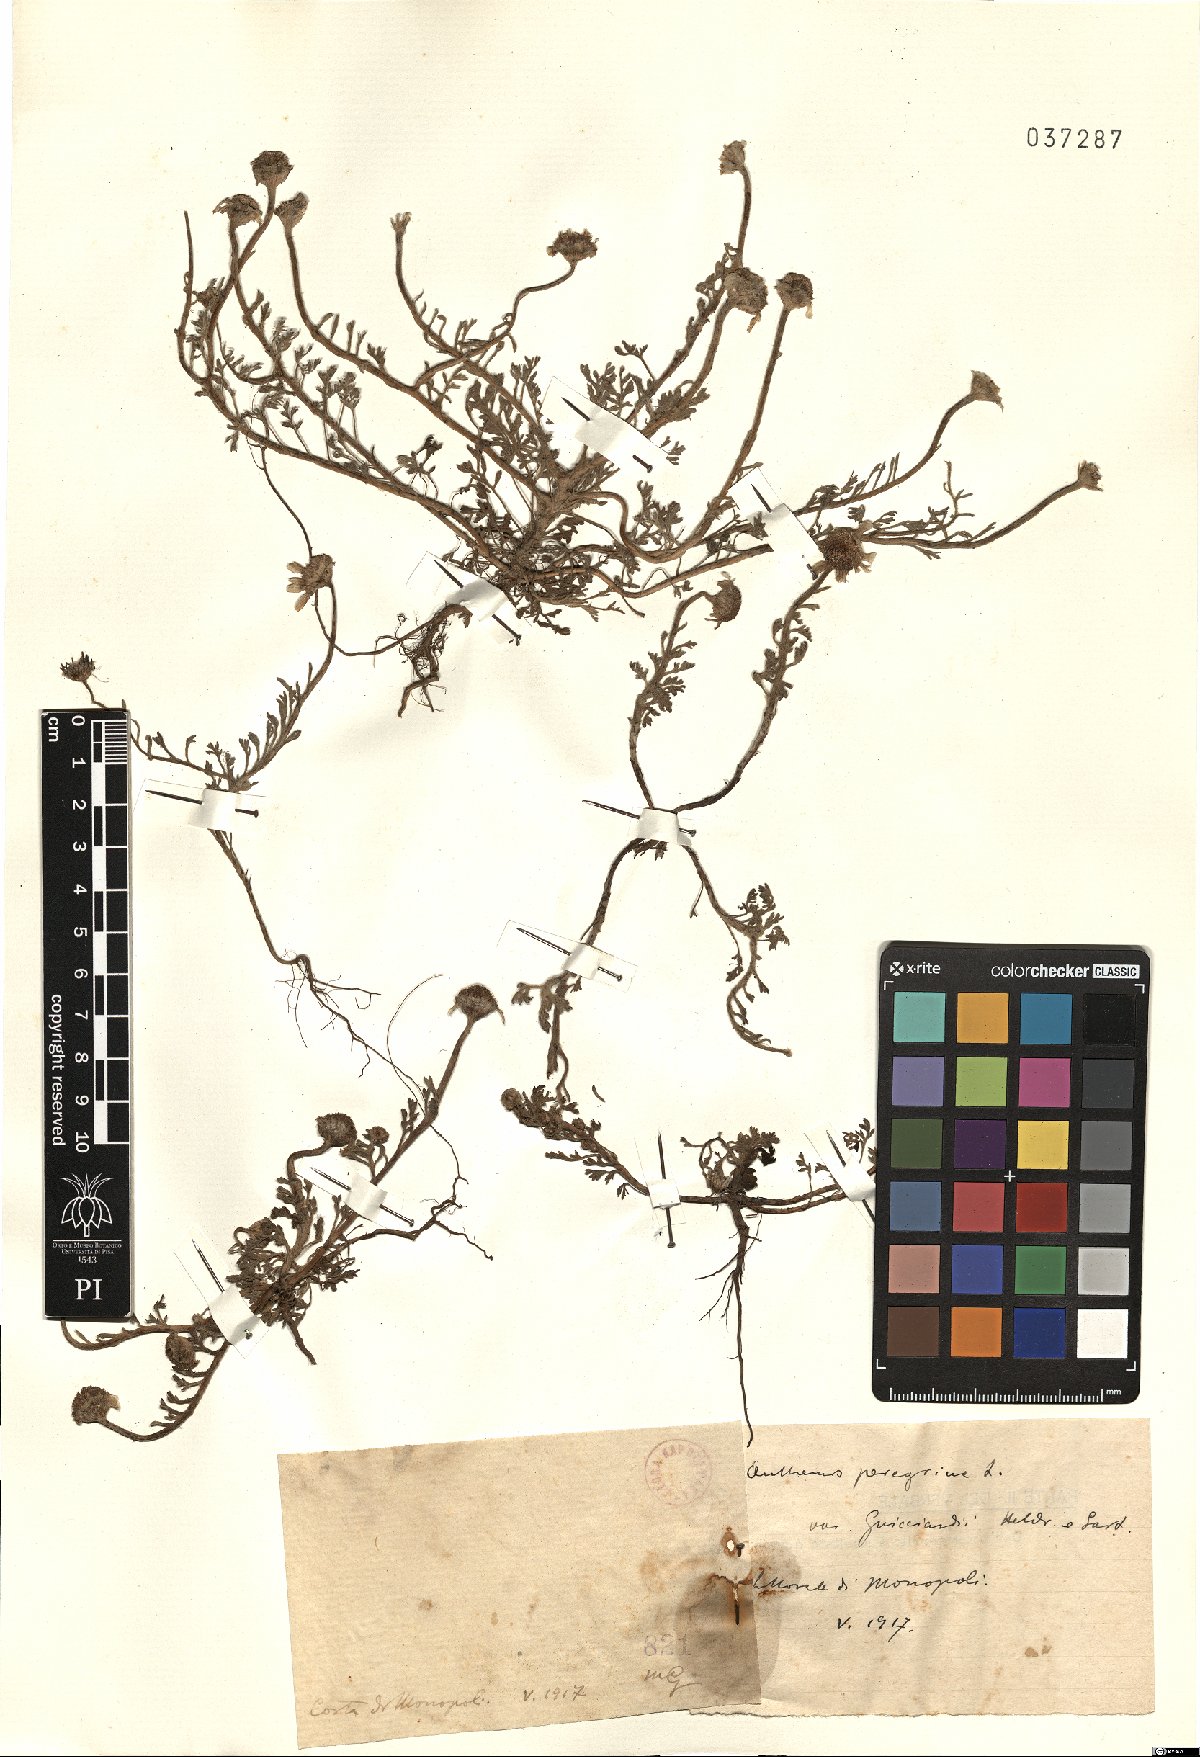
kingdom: Plantae
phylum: Tracheophyta
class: Magnoliopsida
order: Asterales
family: Asteraceae
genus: Anthemis
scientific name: Anthemis tomentosa
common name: Woolly chamomile
